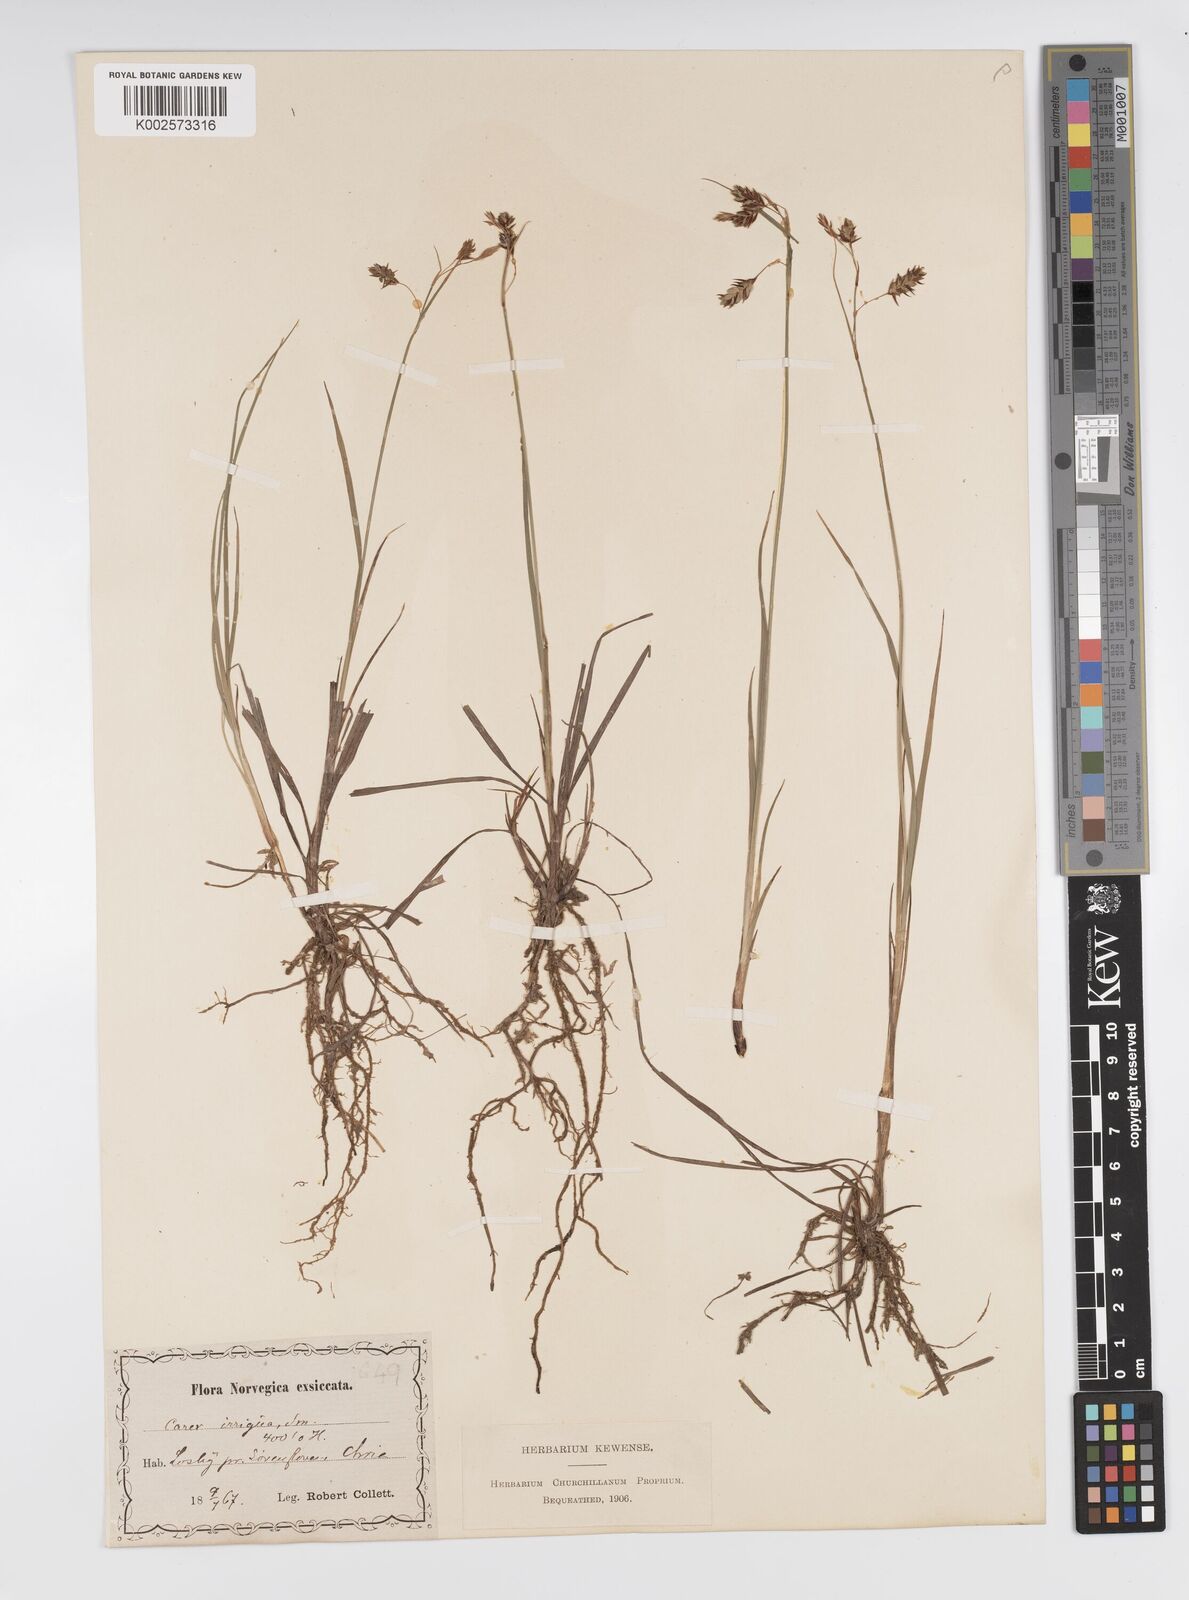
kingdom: Plantae
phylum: Tracheophyta
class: Liliopsida
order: Poales
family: Cyperaceae
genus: Carex
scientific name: Carex magellanica
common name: Bog sedge
